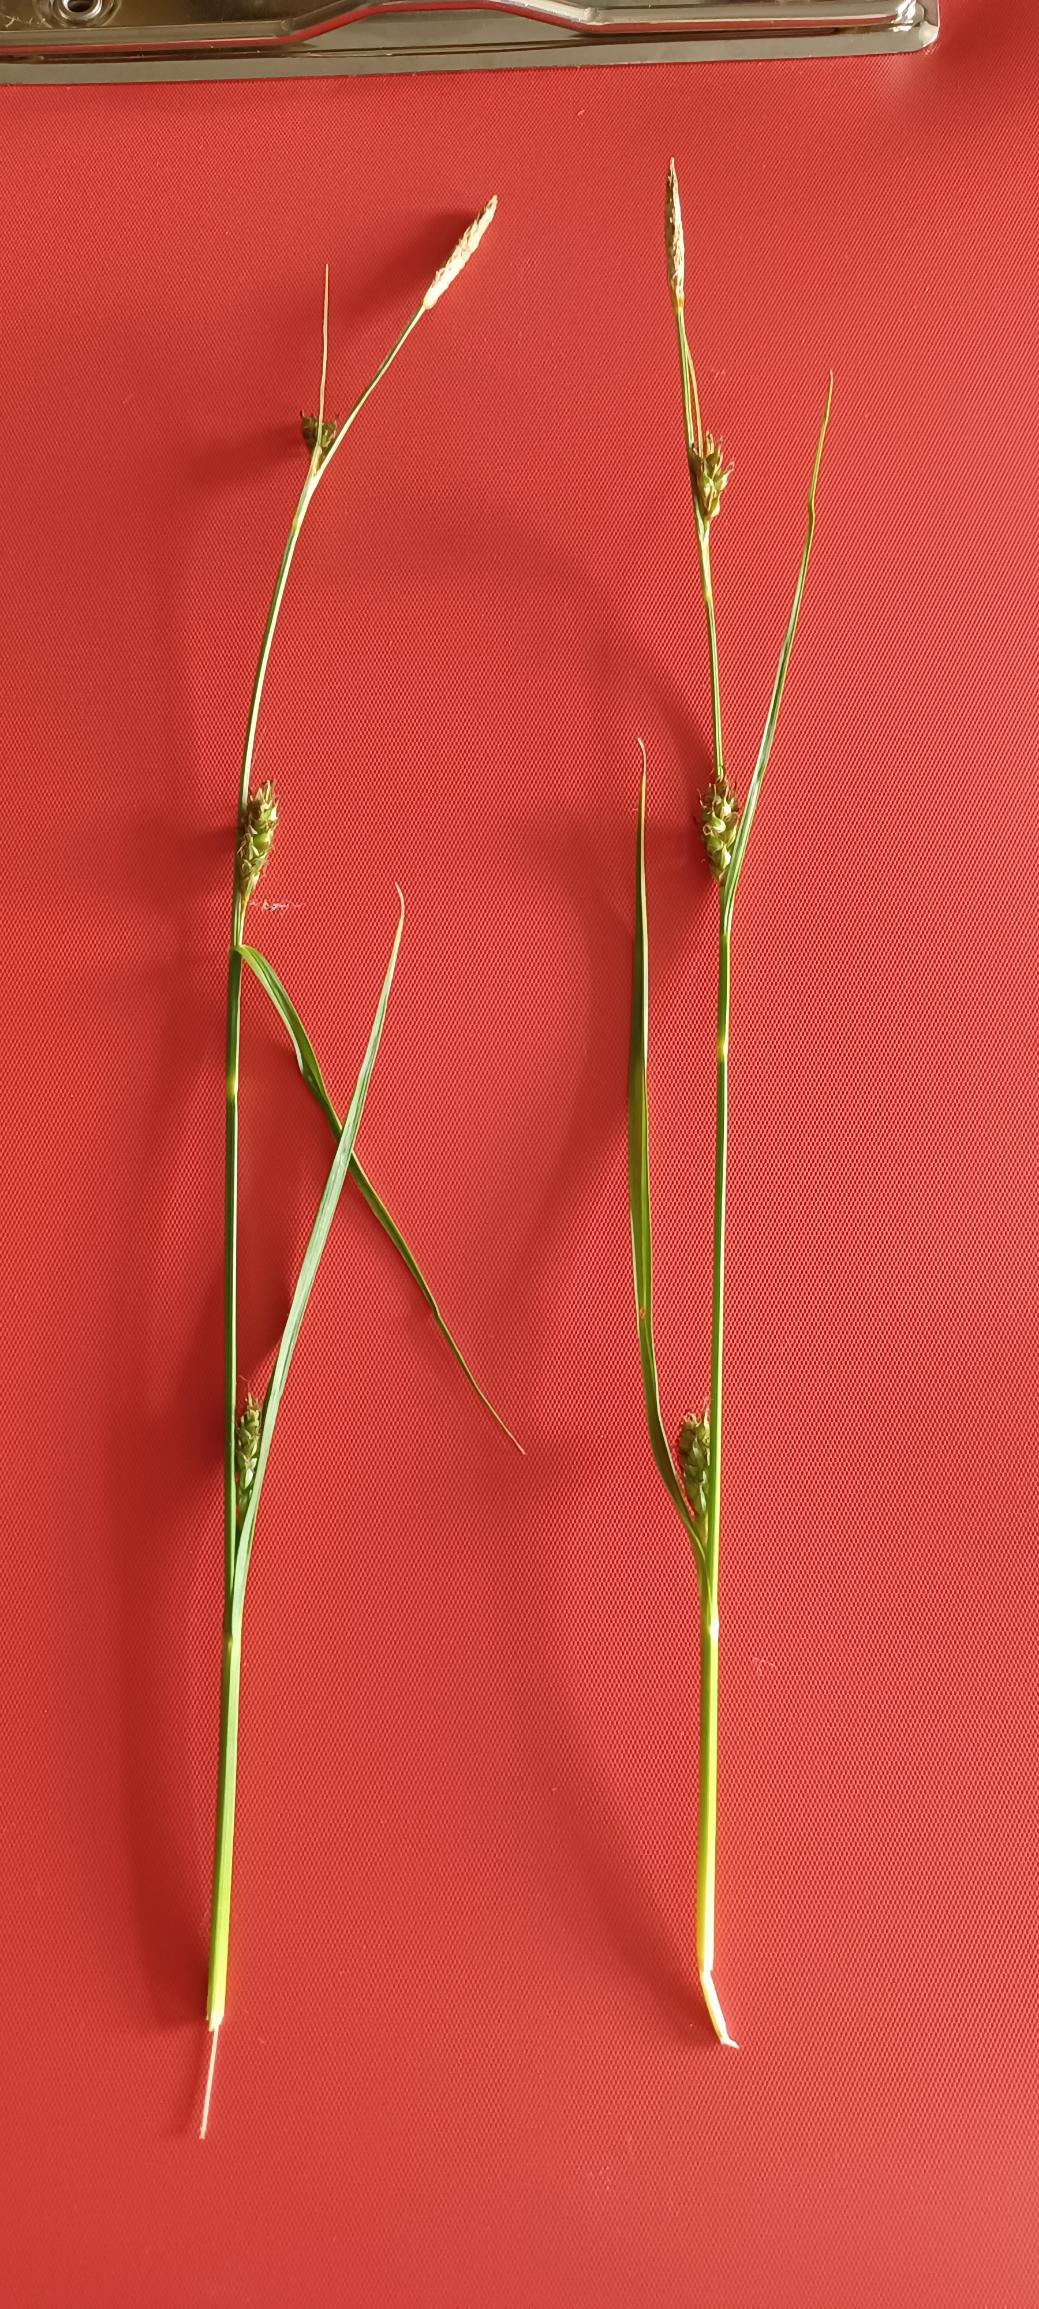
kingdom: Plantae
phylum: Tracheophyta
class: Liliopsida
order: Poales
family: Cyperaceae
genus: Carex
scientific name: Carex distans
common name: Fjernakset star
